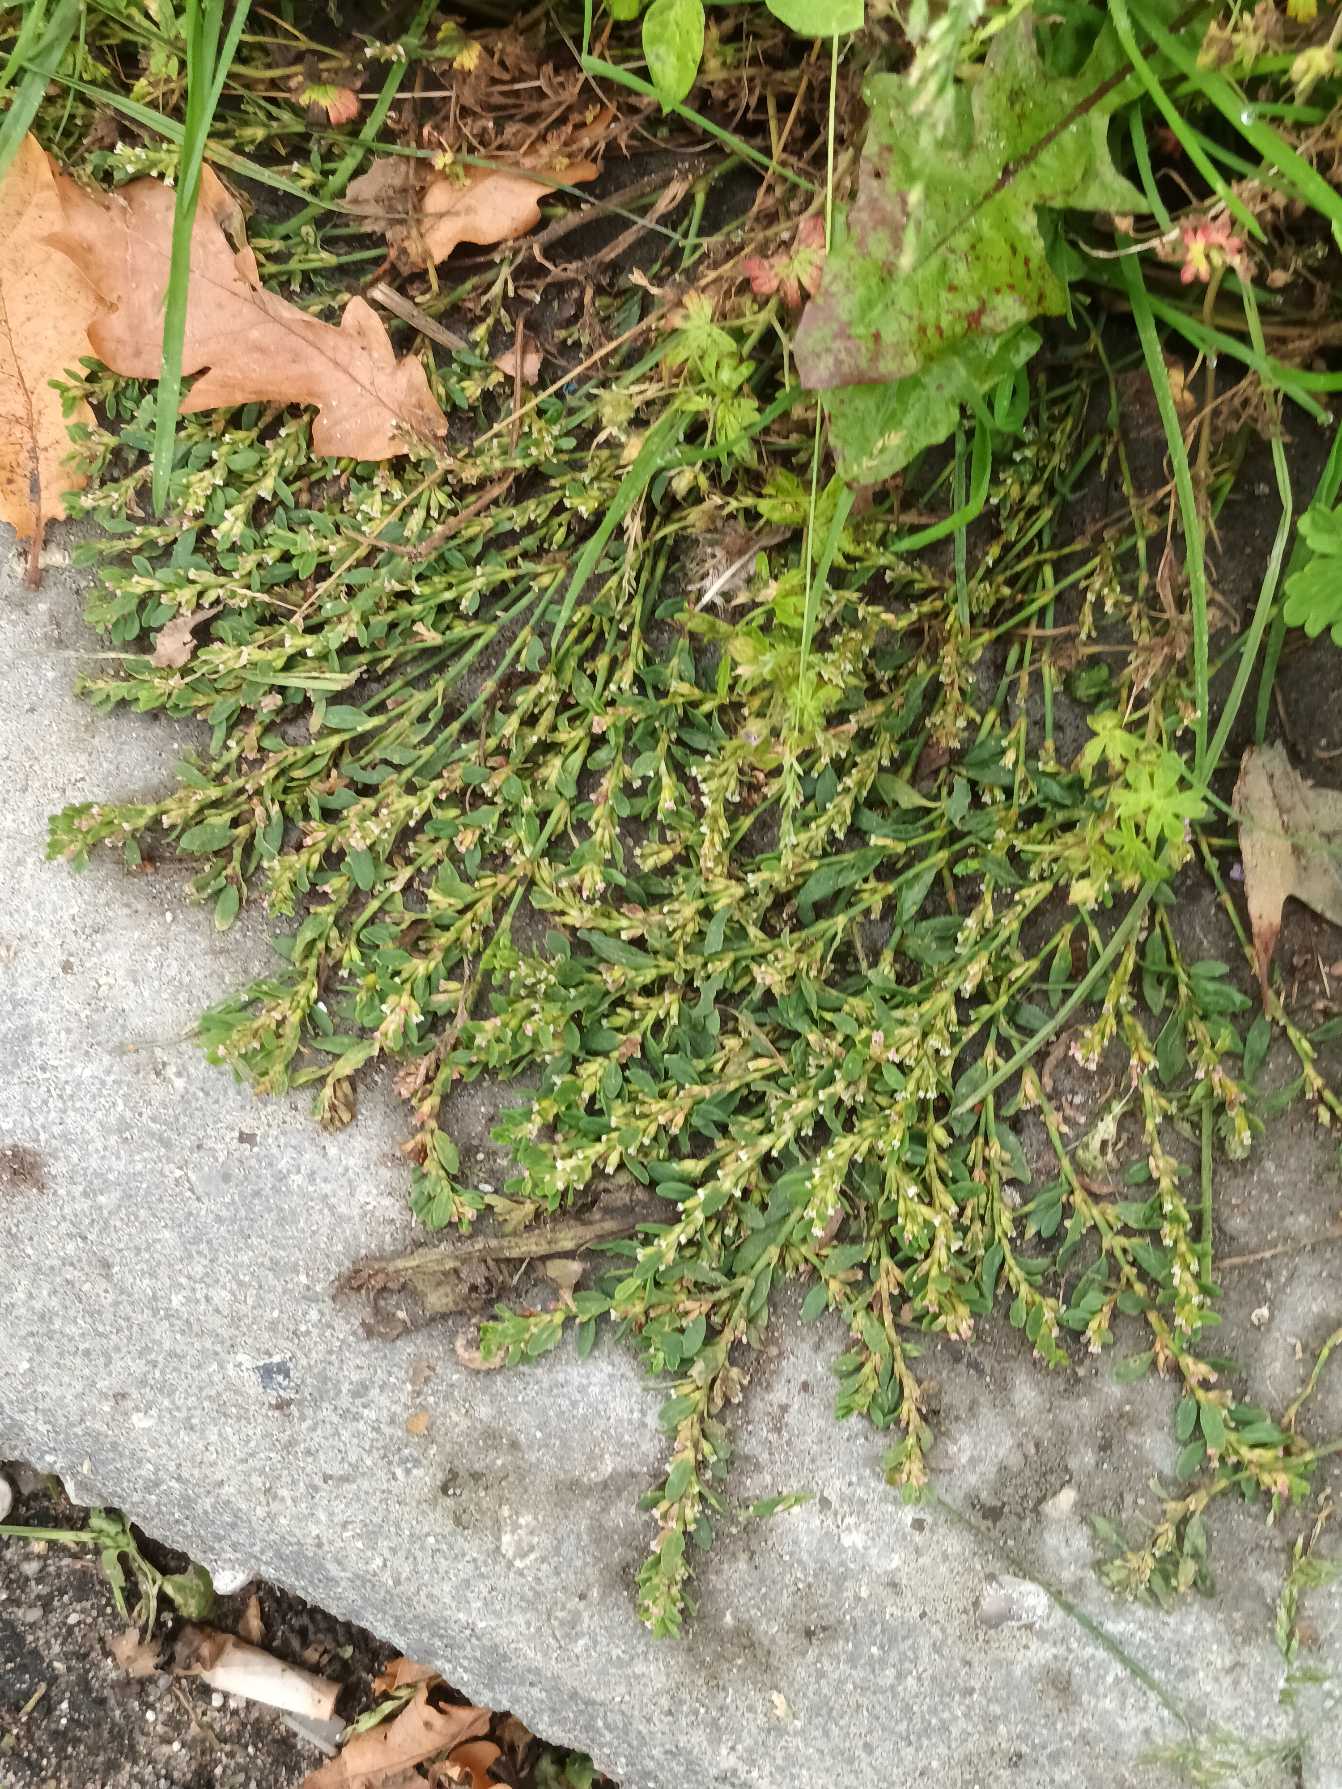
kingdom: Plantae
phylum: Tracheophyta
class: Magnoliopsida
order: Caryophyllales
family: Polygonaceae
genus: Polygonum
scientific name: Polygonum arenastrum
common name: Liggende vej-pileurt
